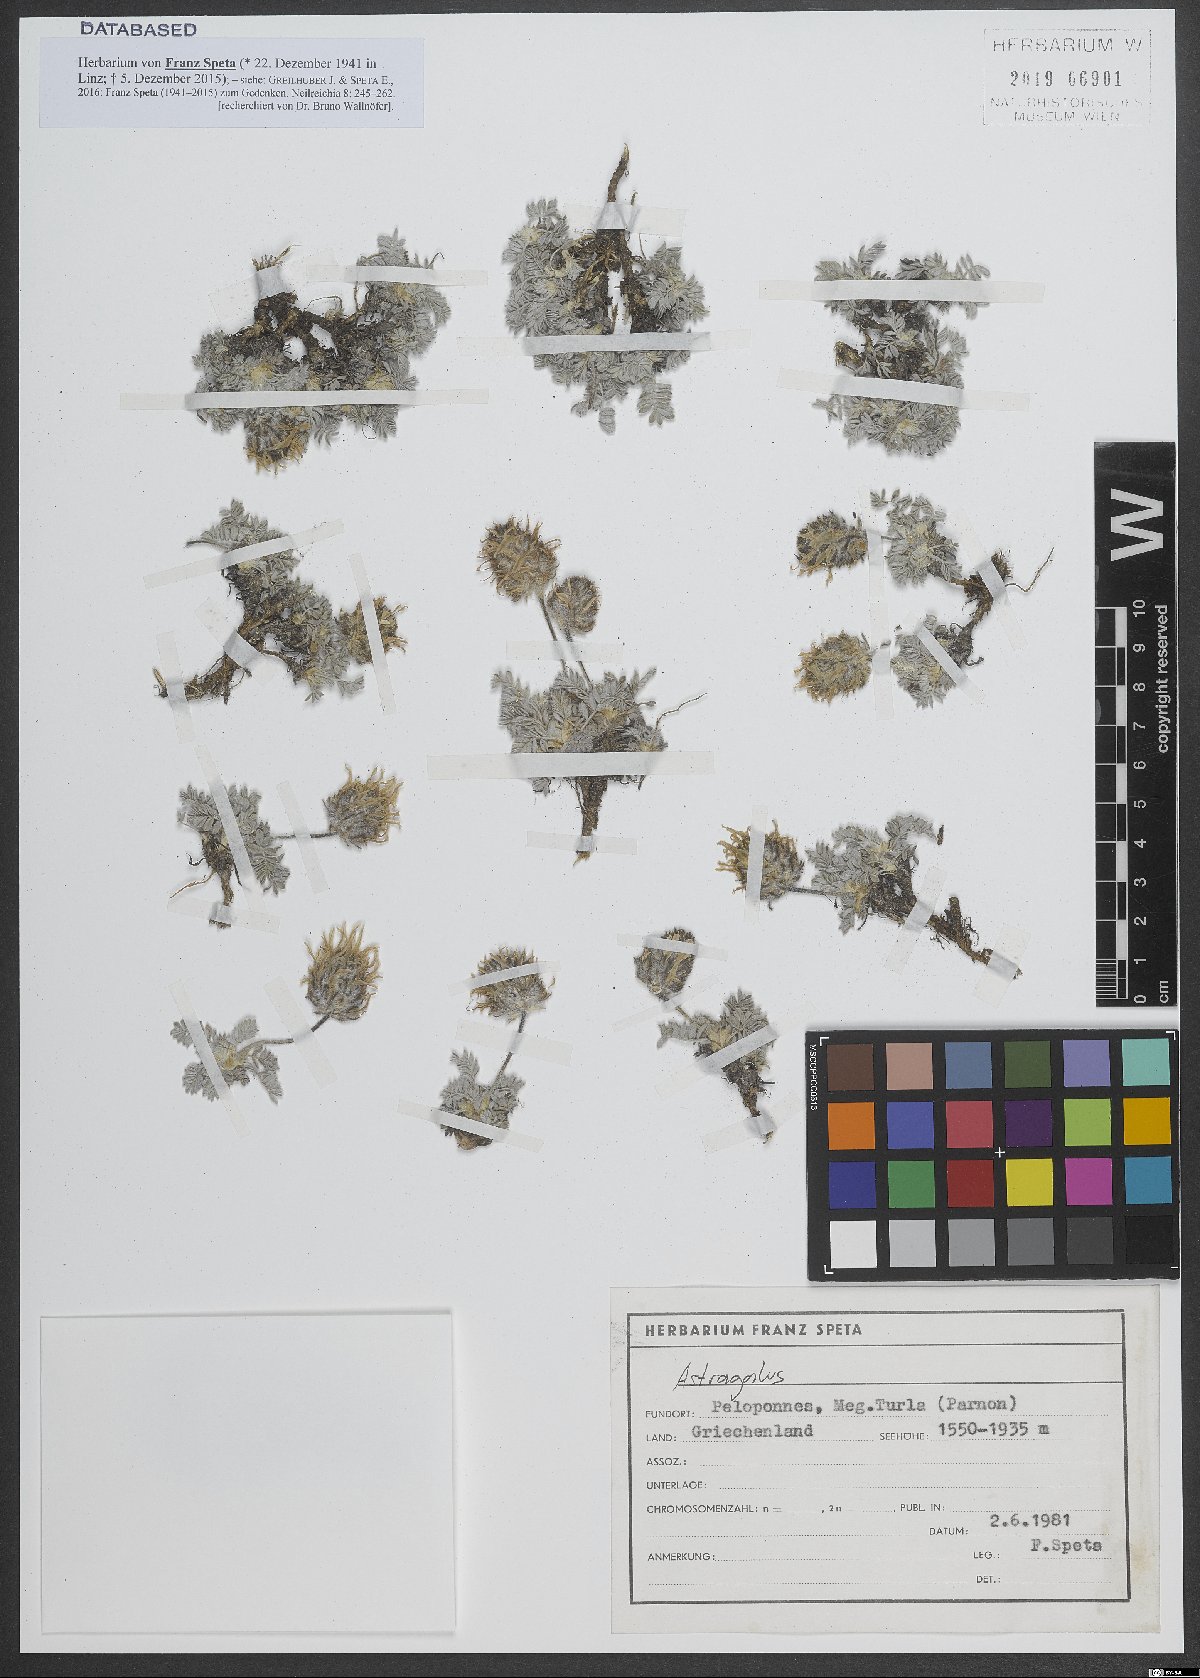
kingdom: Plantae
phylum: Tracheophyta
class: Magnoliopsida
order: Fabales
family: Fabaceae
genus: Astragalus
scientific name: Astragalus
